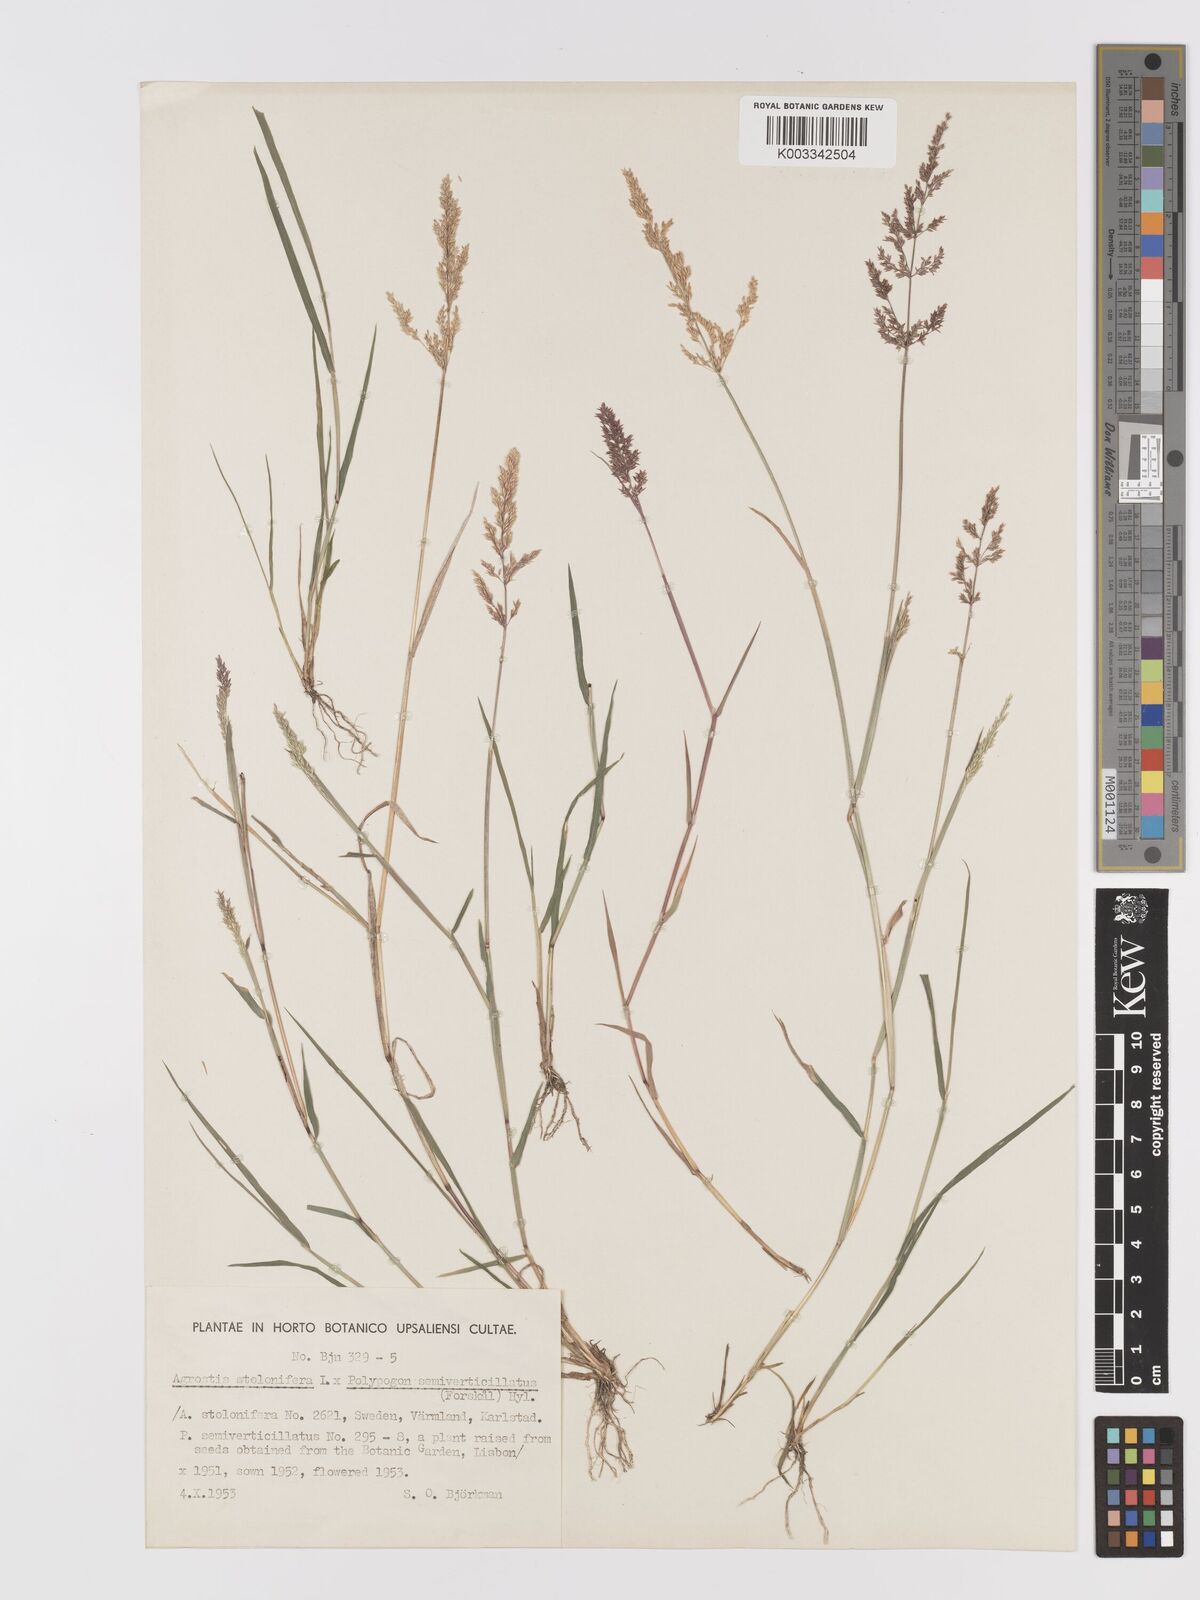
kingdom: Plantae
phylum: Tracheophyta
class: Liliopsida
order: Poales
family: Poaceae
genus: Agrostis
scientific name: Agrostis gigantea
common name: Black bent
